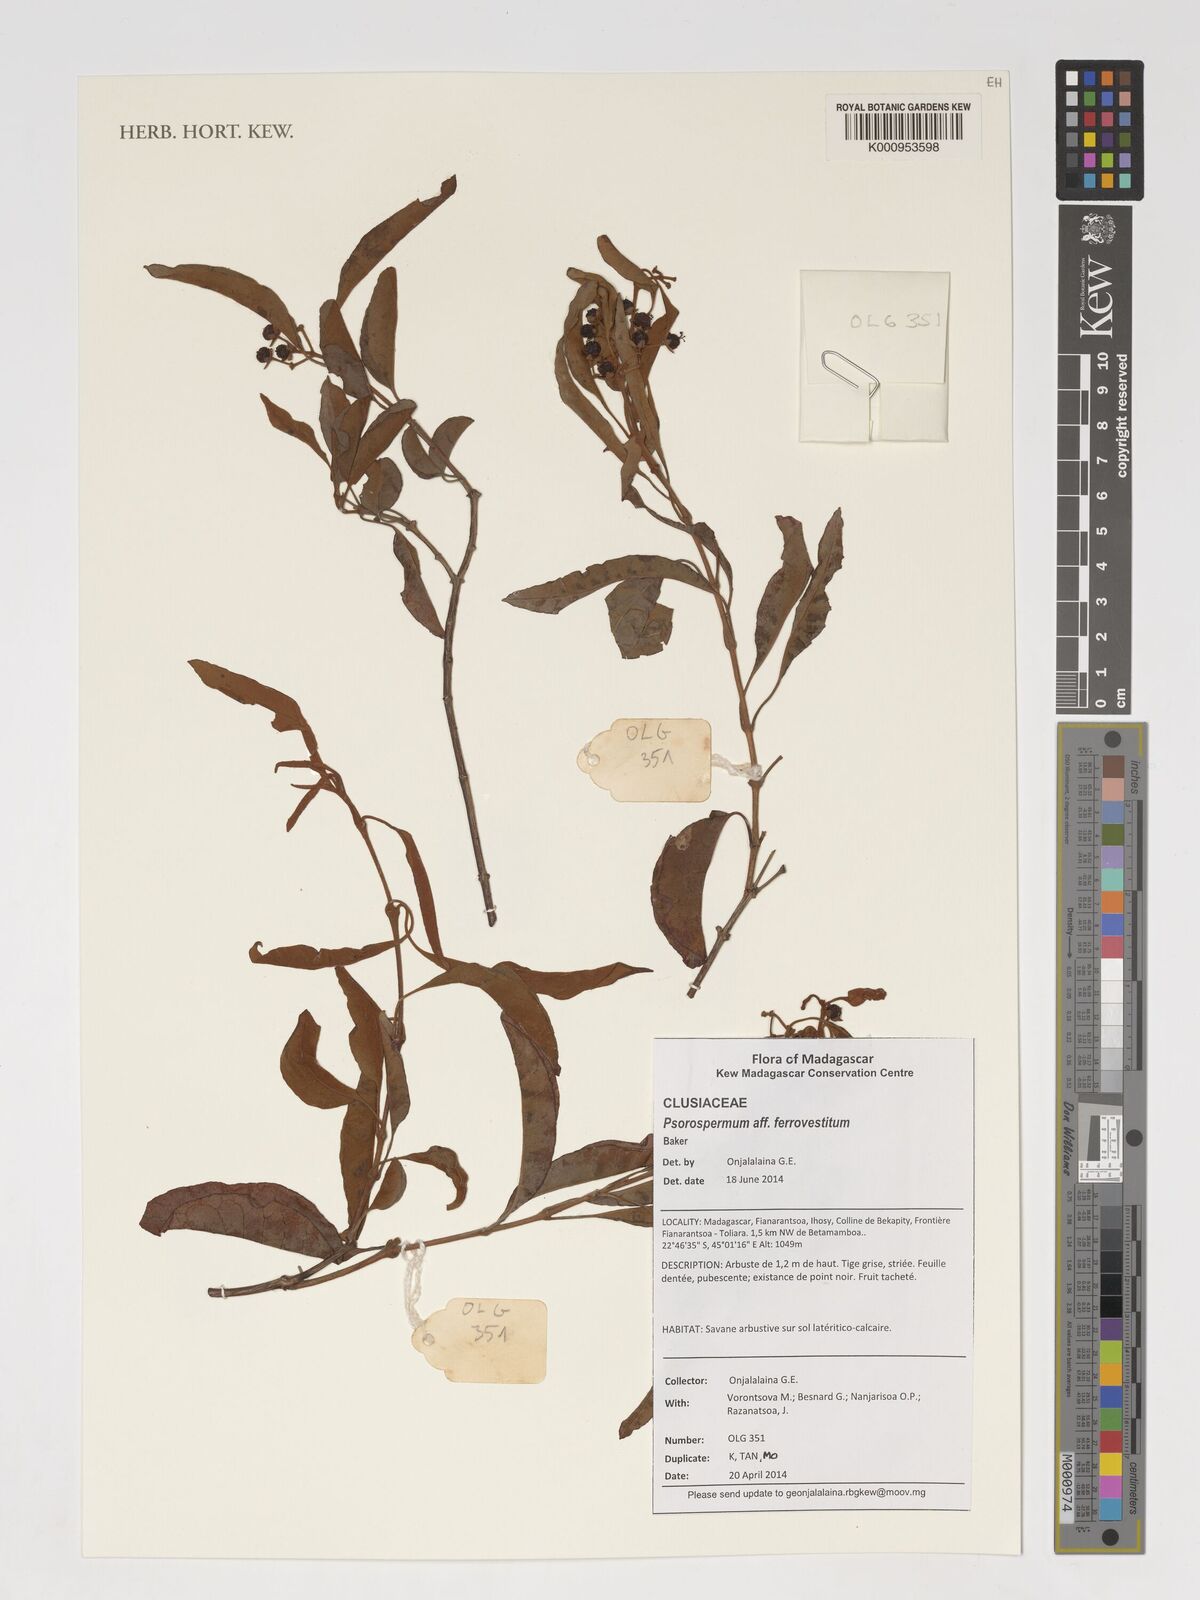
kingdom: Plantae
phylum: Tracheophyta
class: Magnoliopsida
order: Malpighiales
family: Hypericaceae
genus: Psorospermum
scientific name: Psorospermum ferrovestitum
